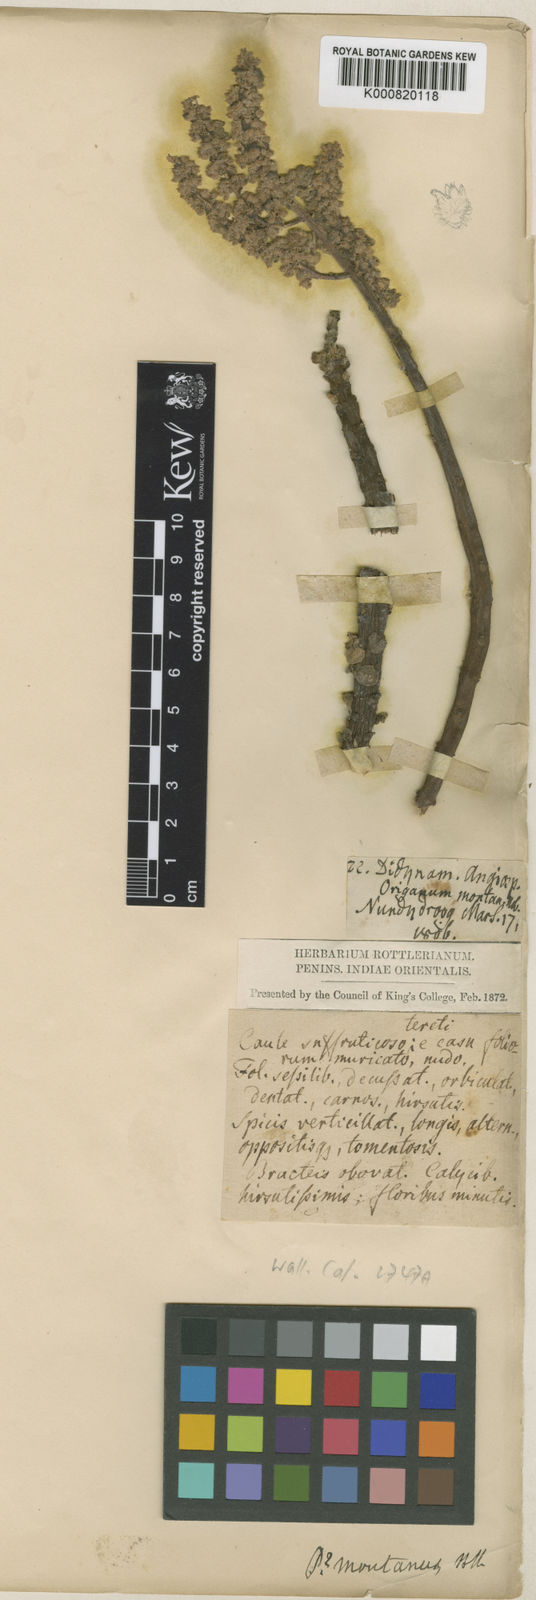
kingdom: Plantae
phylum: Tracheophyta
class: Magnoliopsida
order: Lamiales
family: Lamiaceae
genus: Coleus
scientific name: Coleus cylindraceus
